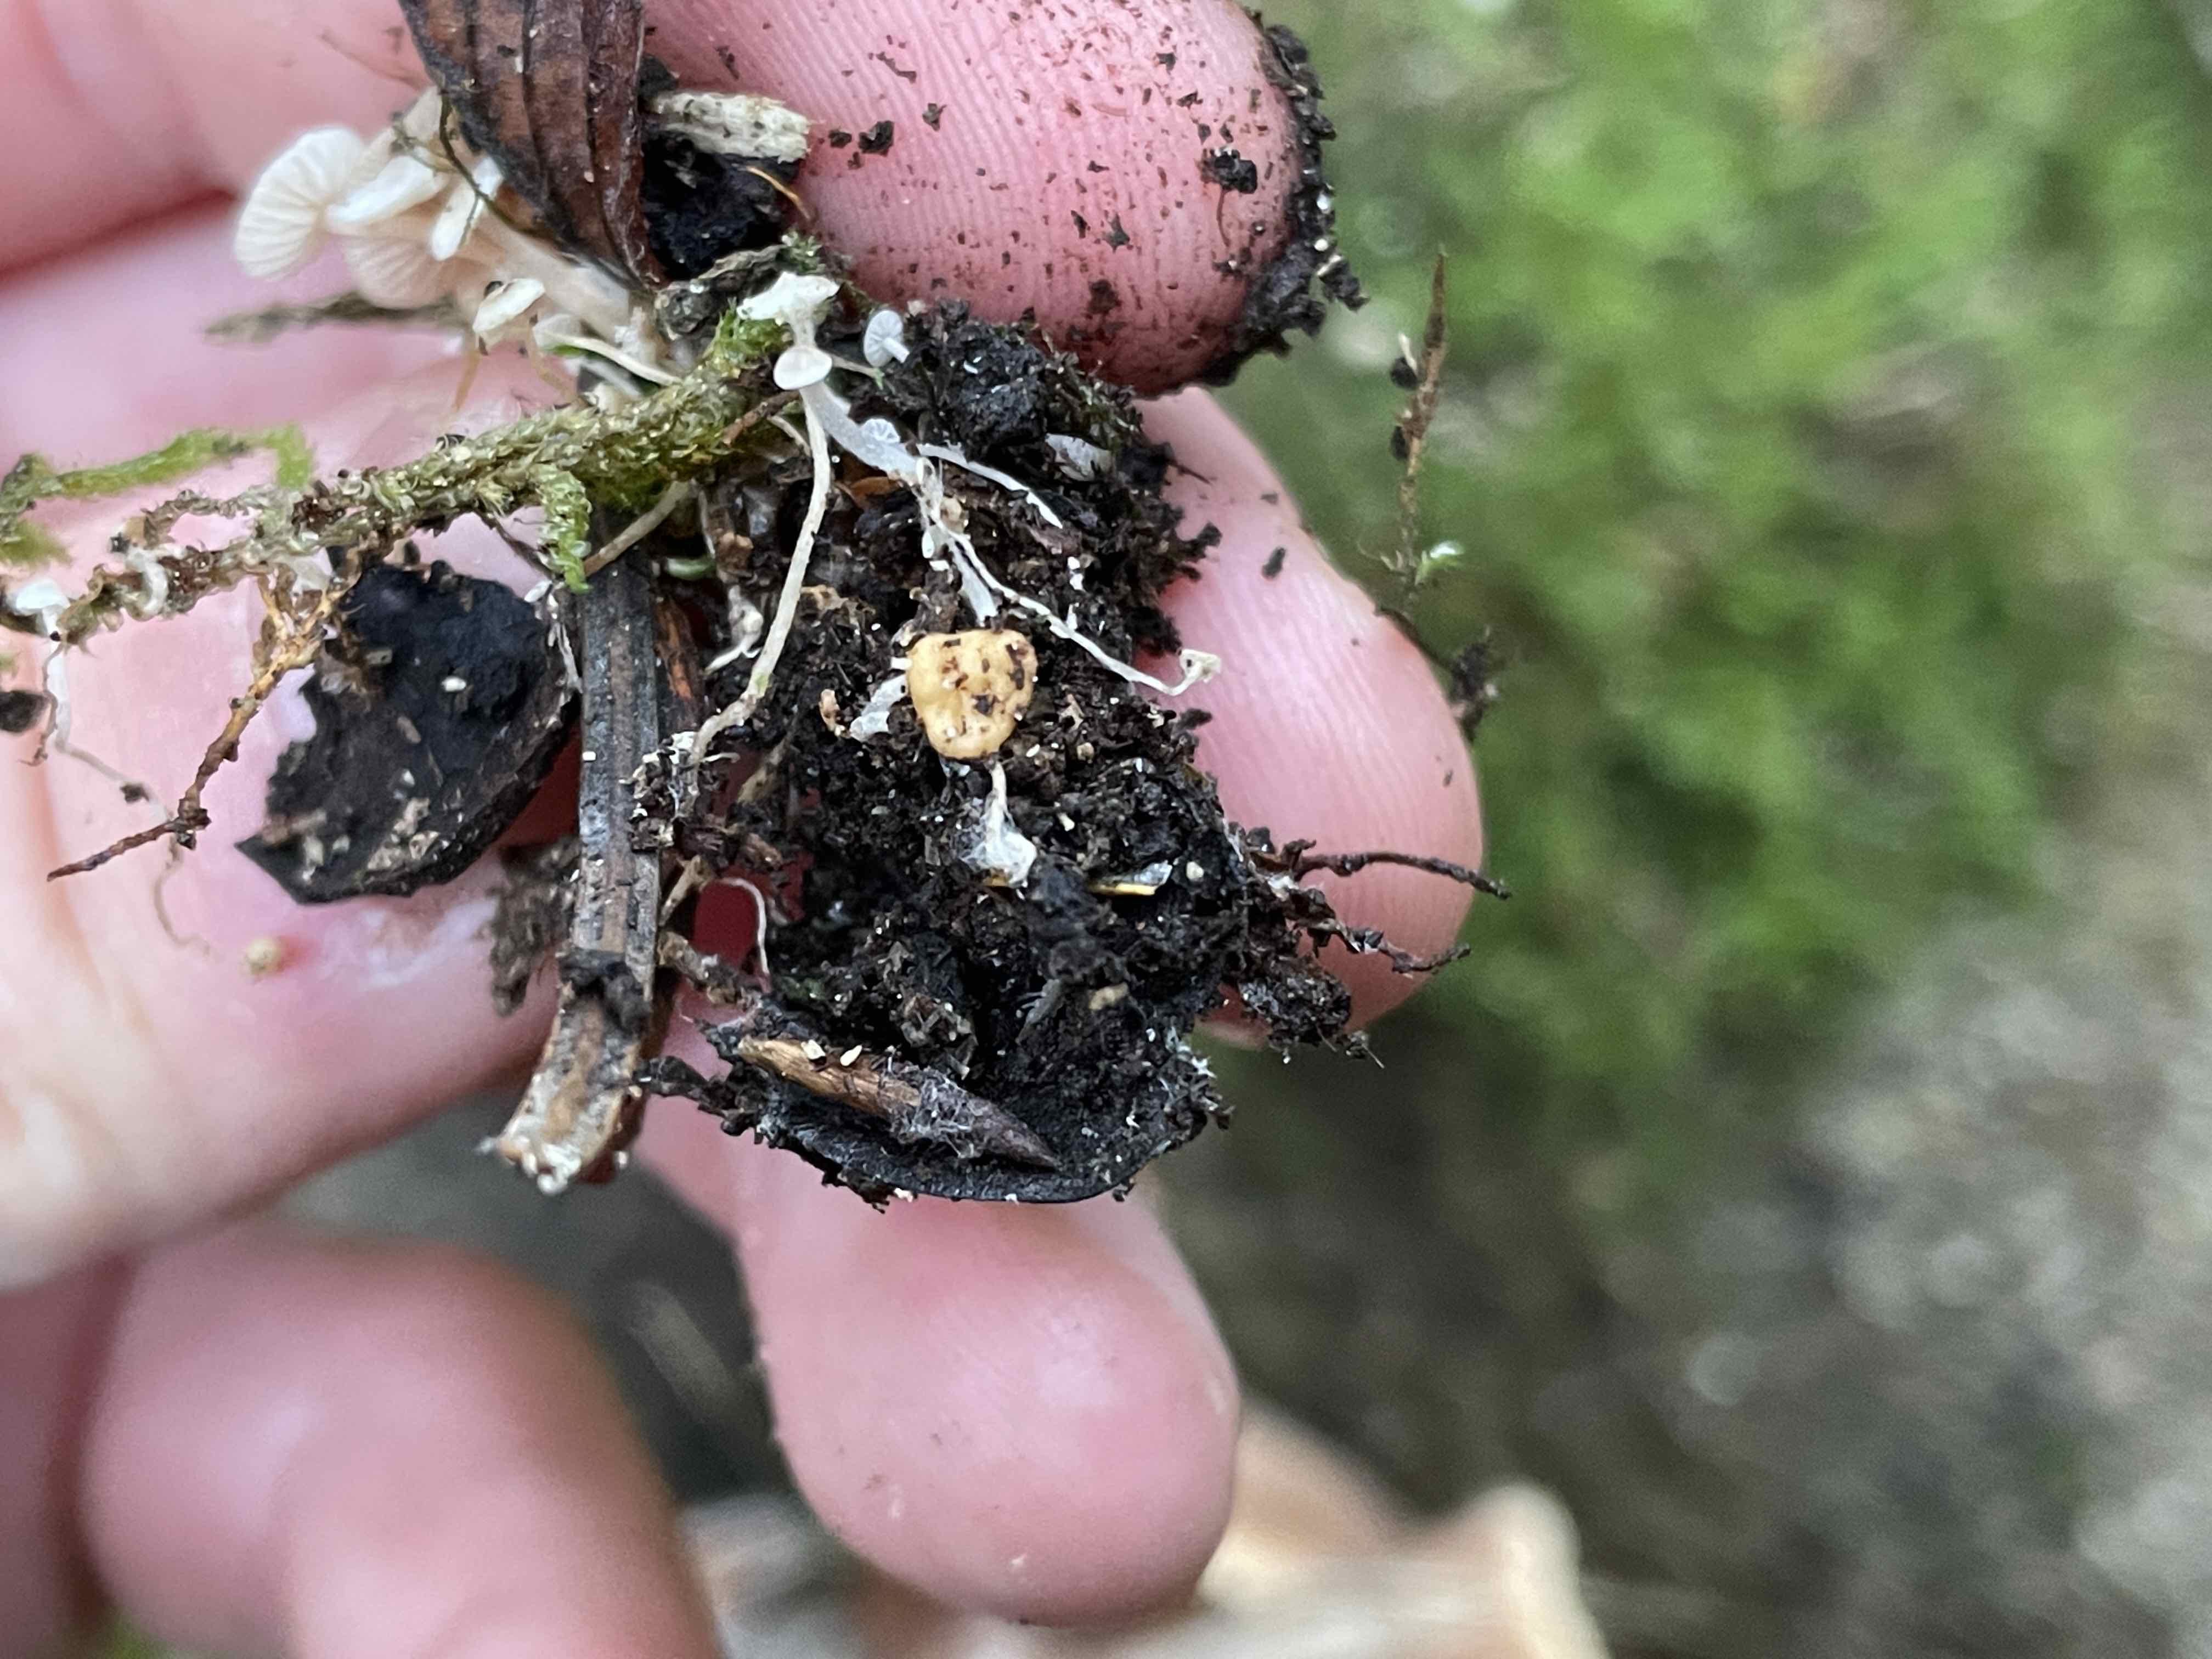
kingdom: Fungi
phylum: Basidiomycota
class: Agaricomycetes
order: Agaricales
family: Tricholomataceae
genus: Collybia
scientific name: Collybia cookei
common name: gulknoldet lighat
